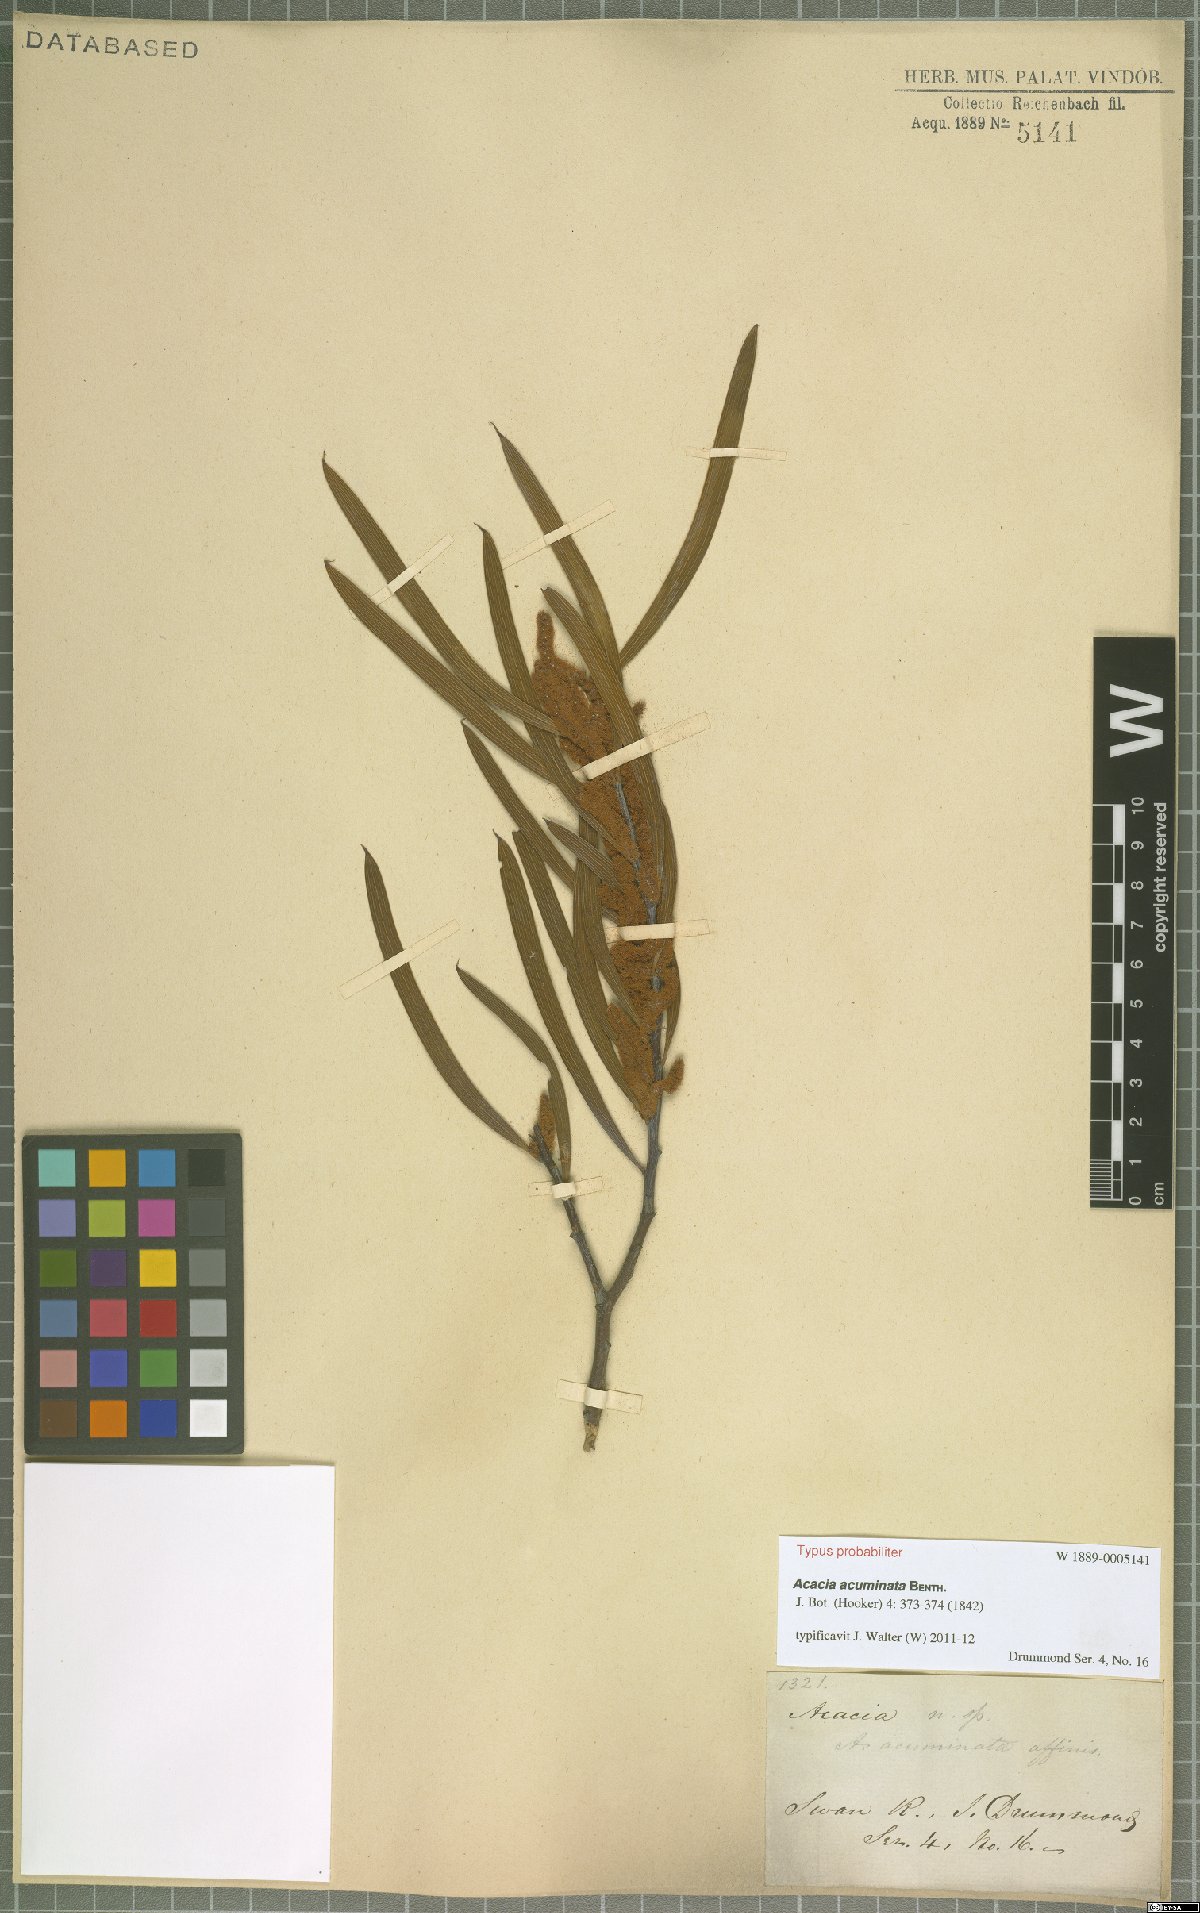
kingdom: Plantae
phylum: Tracheophyta
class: Magnoliopsida
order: Fabales
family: Fabaceae
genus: Acacia
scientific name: Acacia acuminata
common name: Jam wattle
